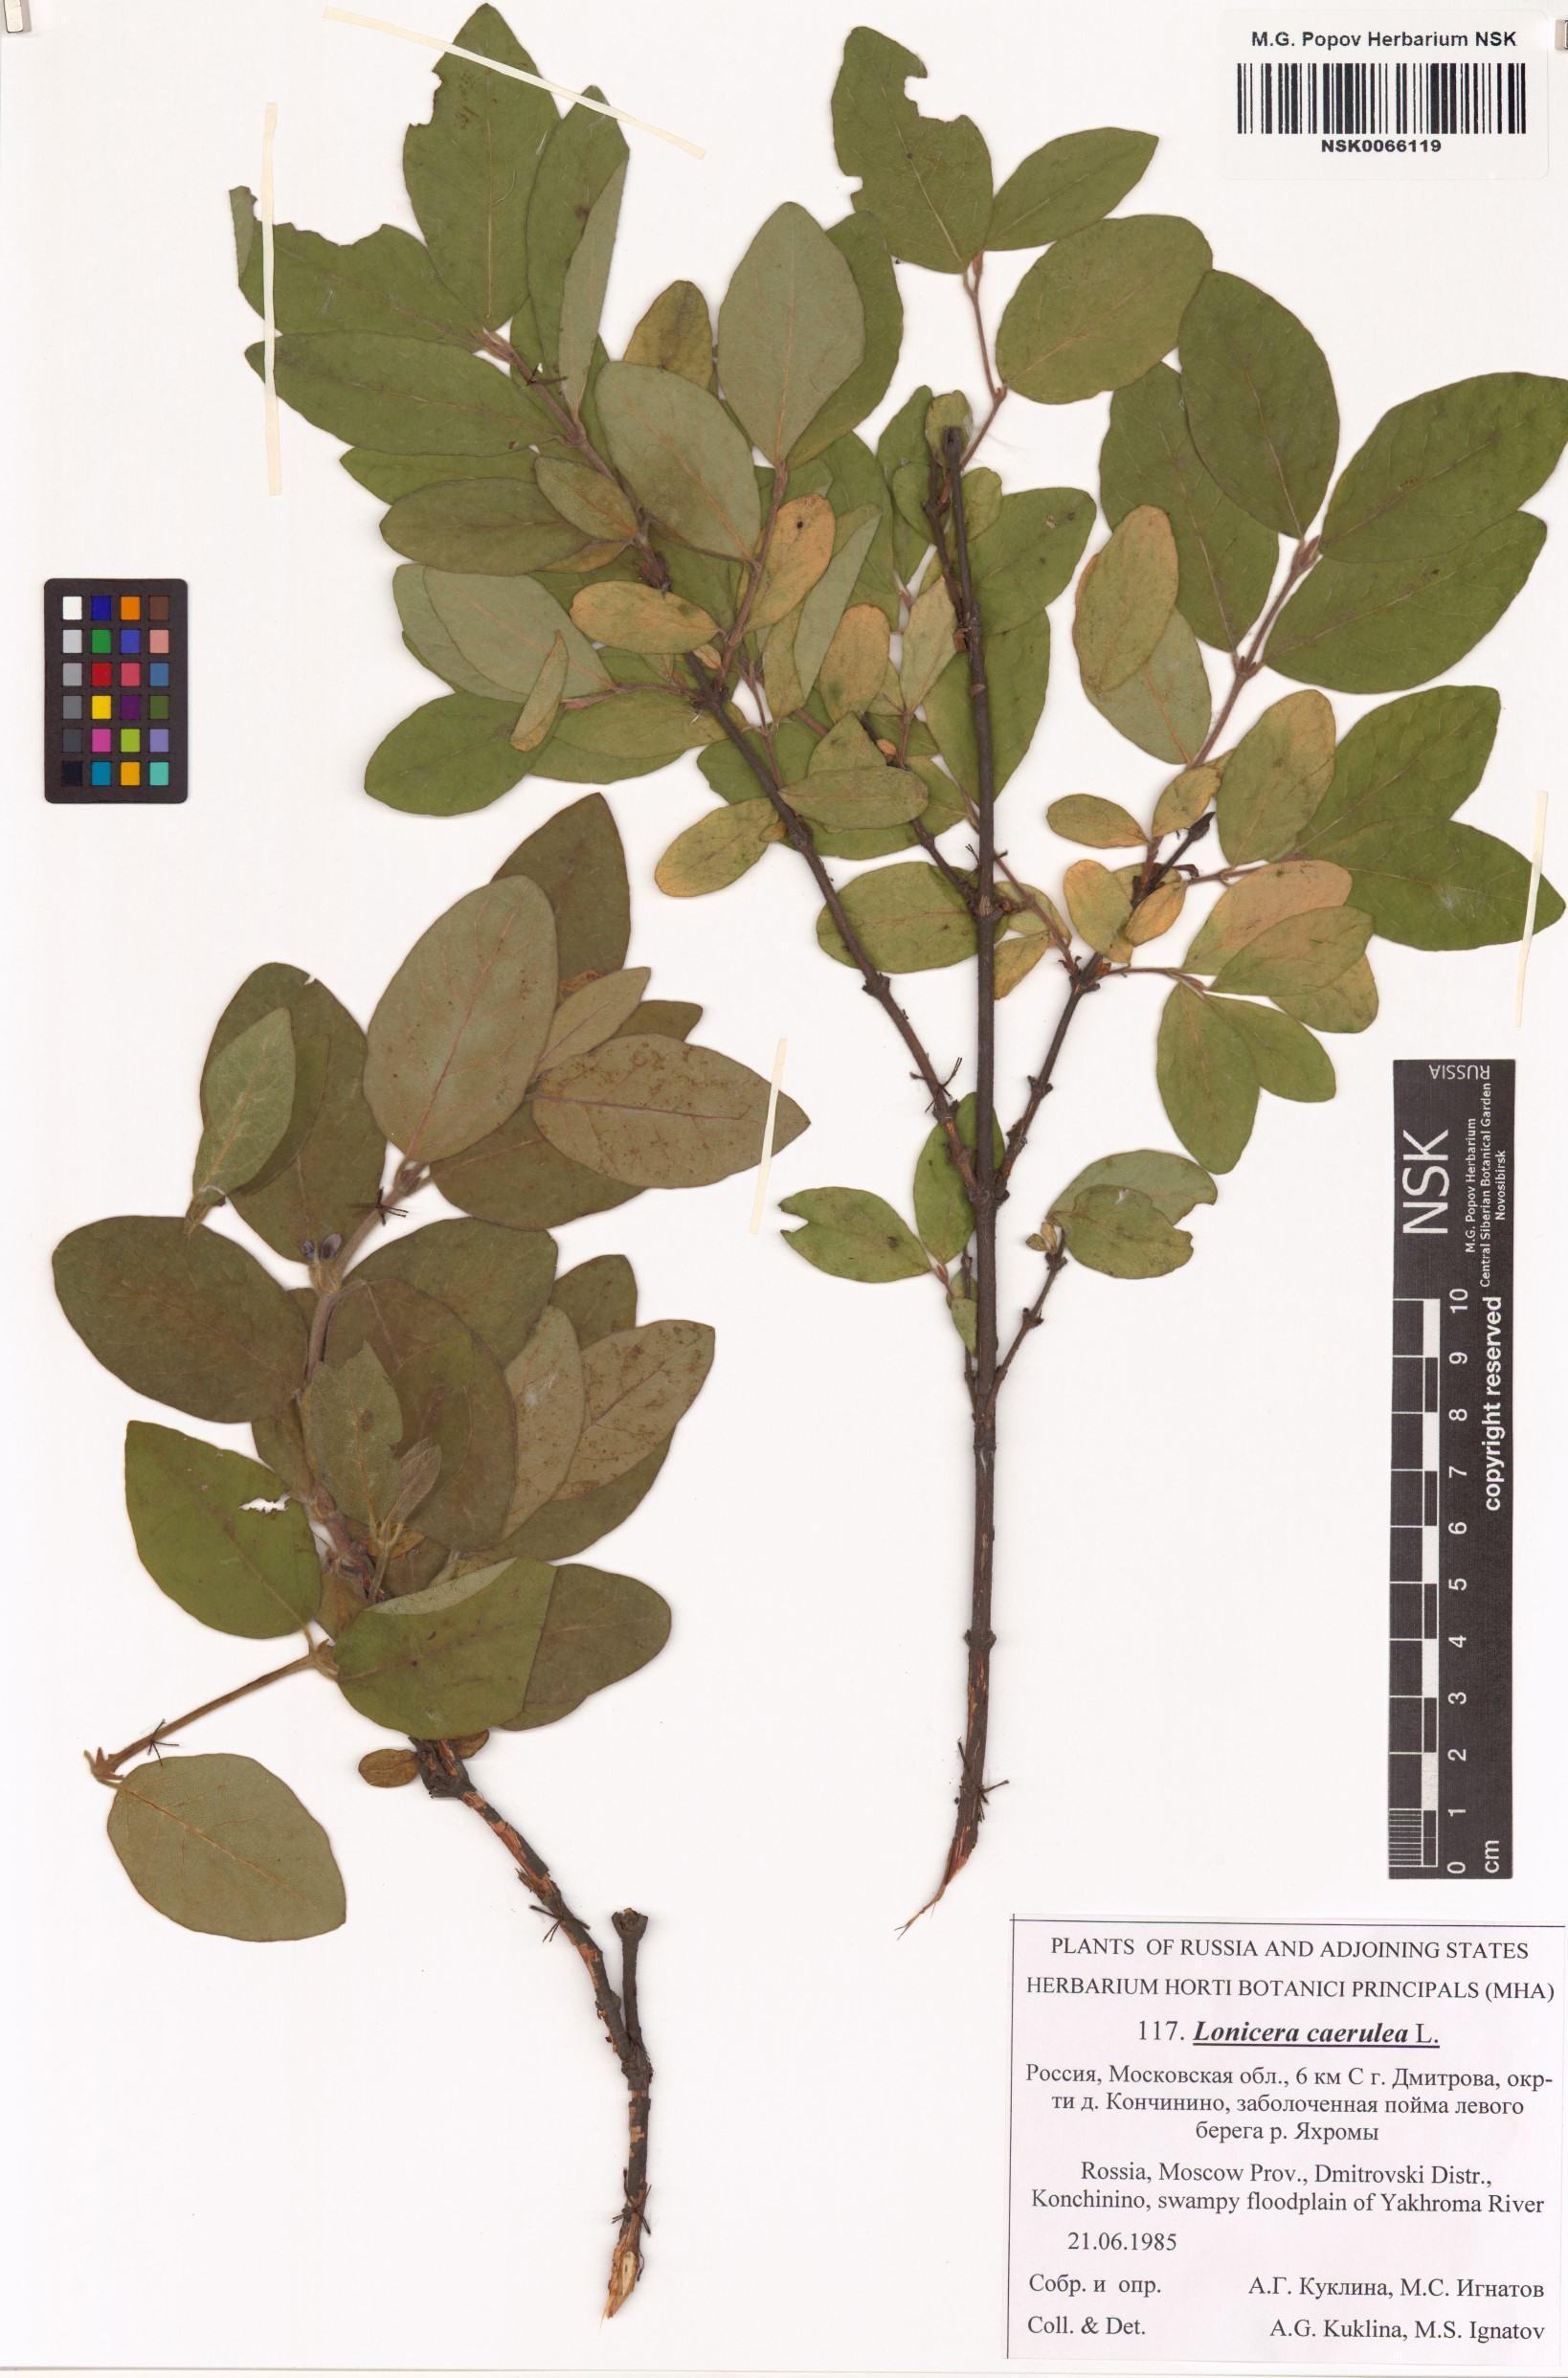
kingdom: Plantae
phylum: Tracheophyta
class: Magnoliopsida
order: Dipsacales
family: Caprifoliaceae
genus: Lonicera
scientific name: Lonicera caerulea
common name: Blue honeysuckle
